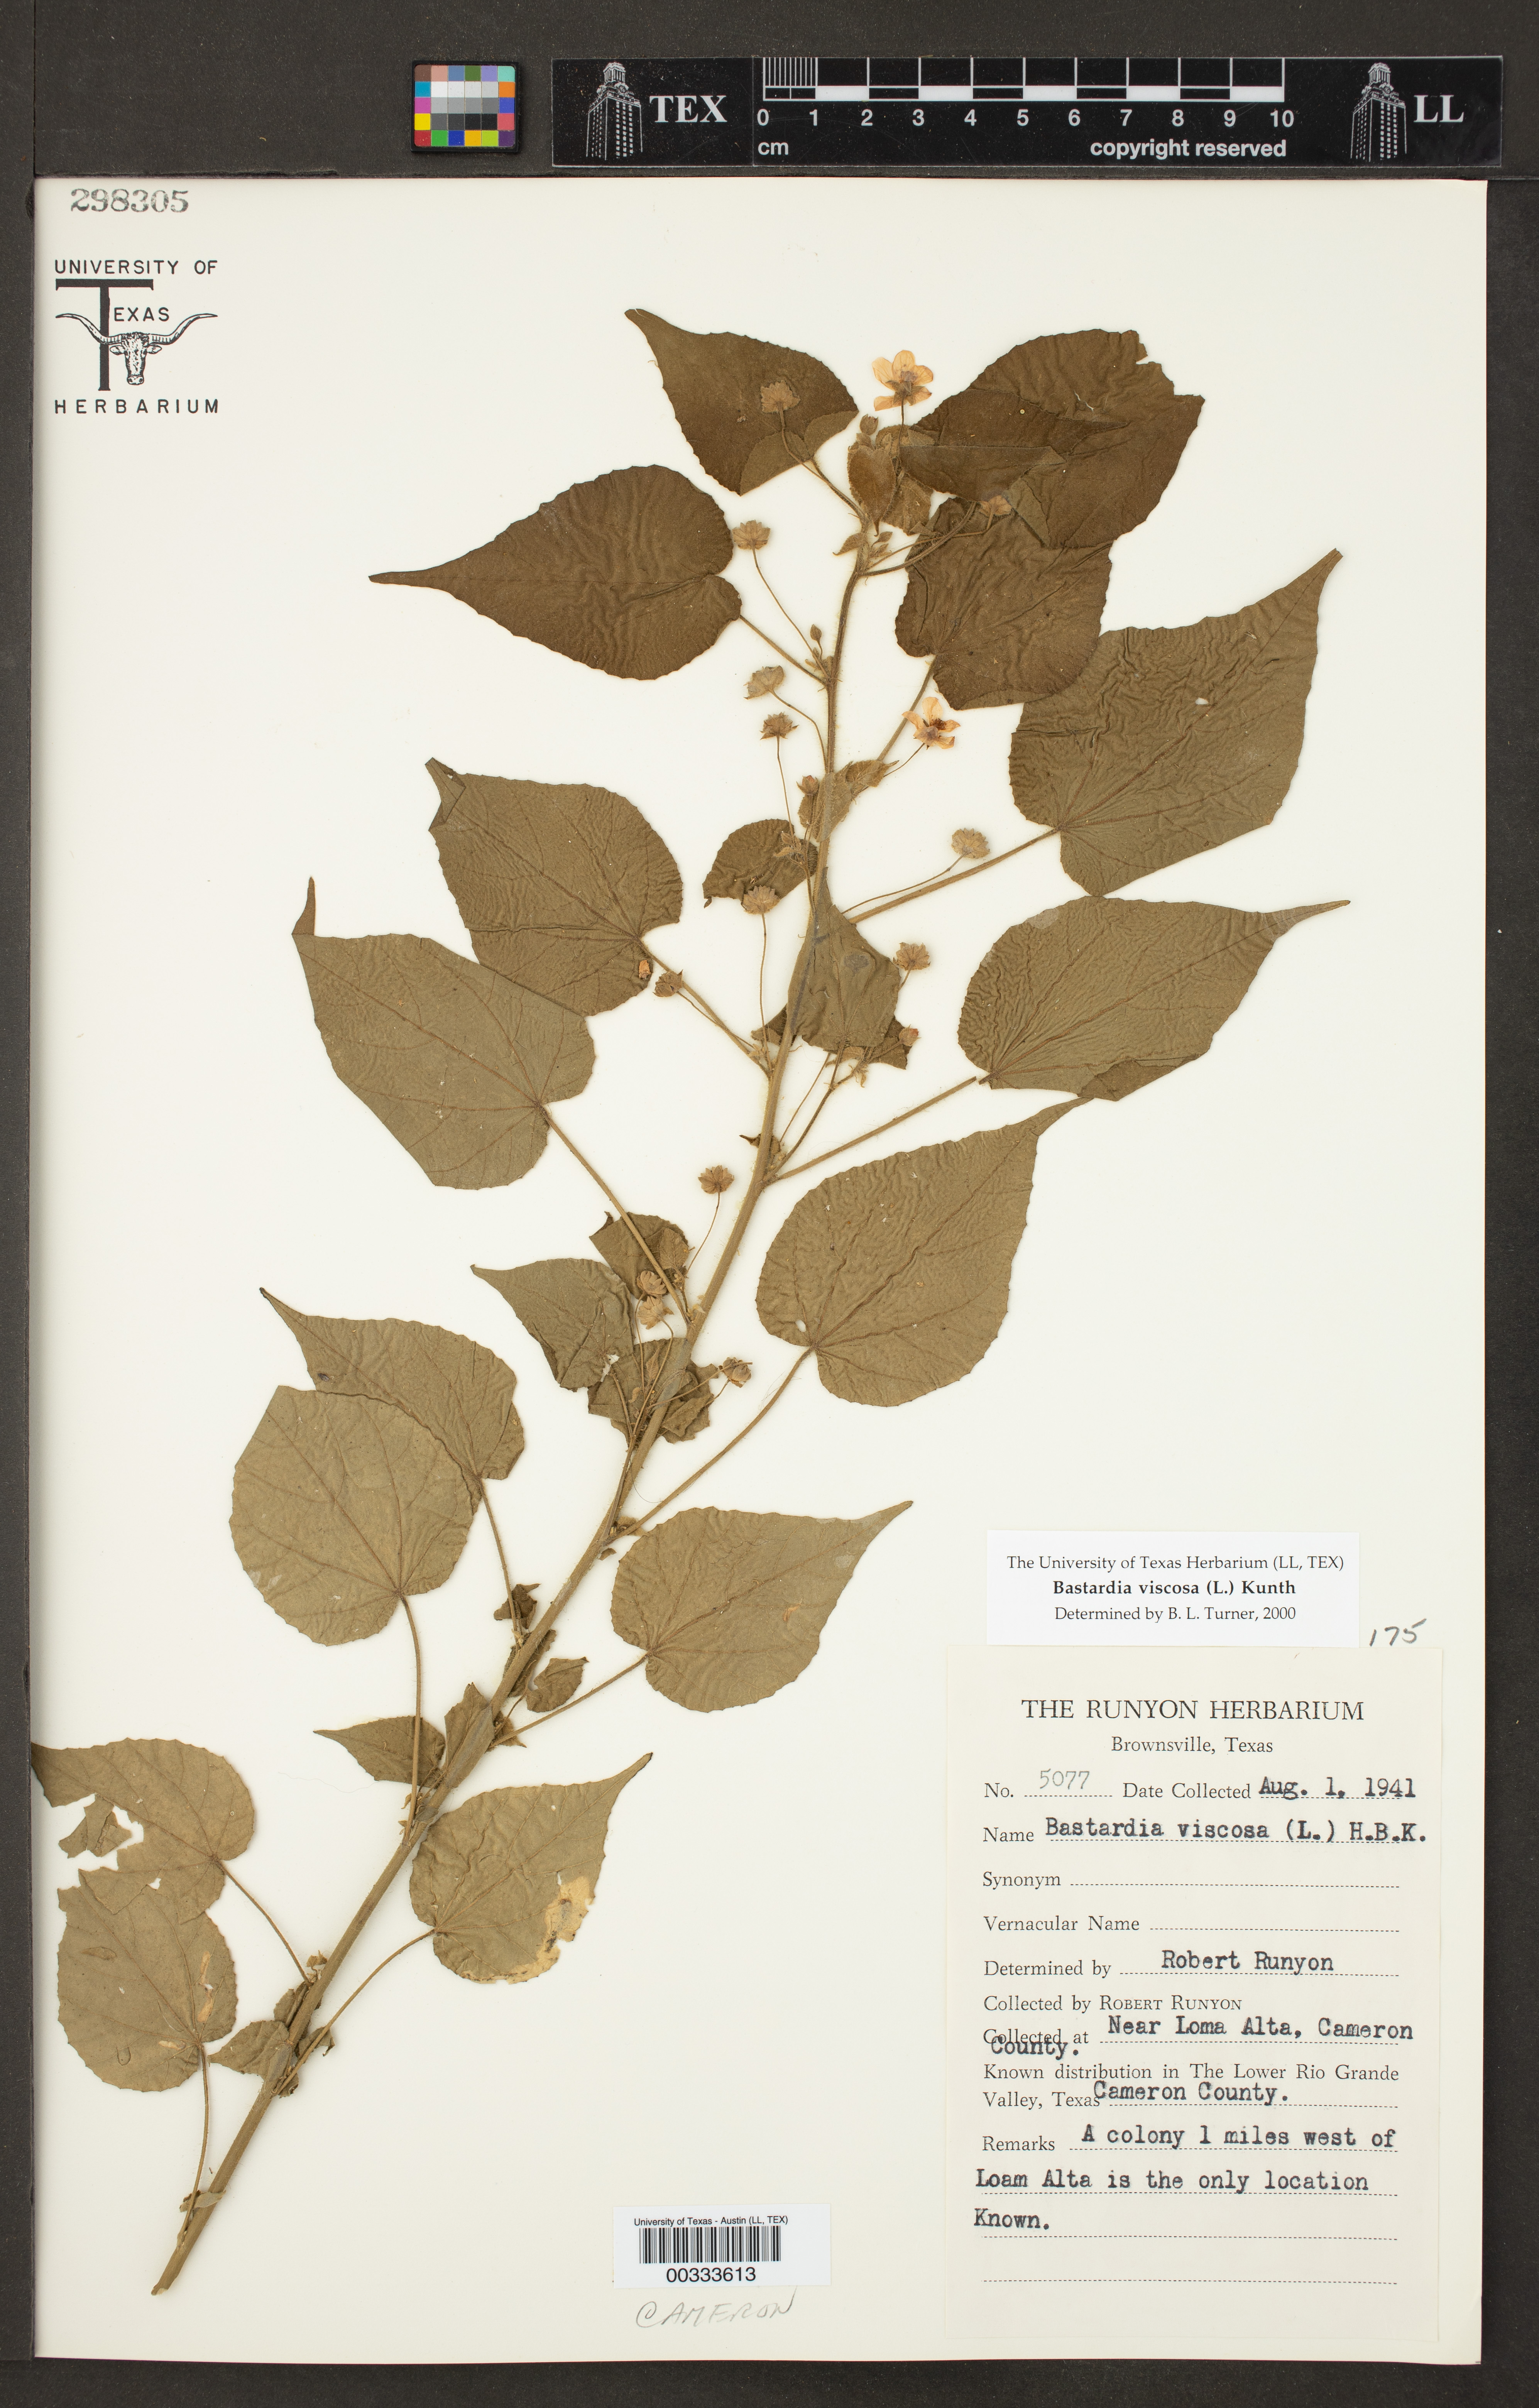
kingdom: Plantae
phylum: Tracheophyta
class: Magnoliopsida
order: Malvales
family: Malvaceae
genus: Abutilon
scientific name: Abutilon viscosum
